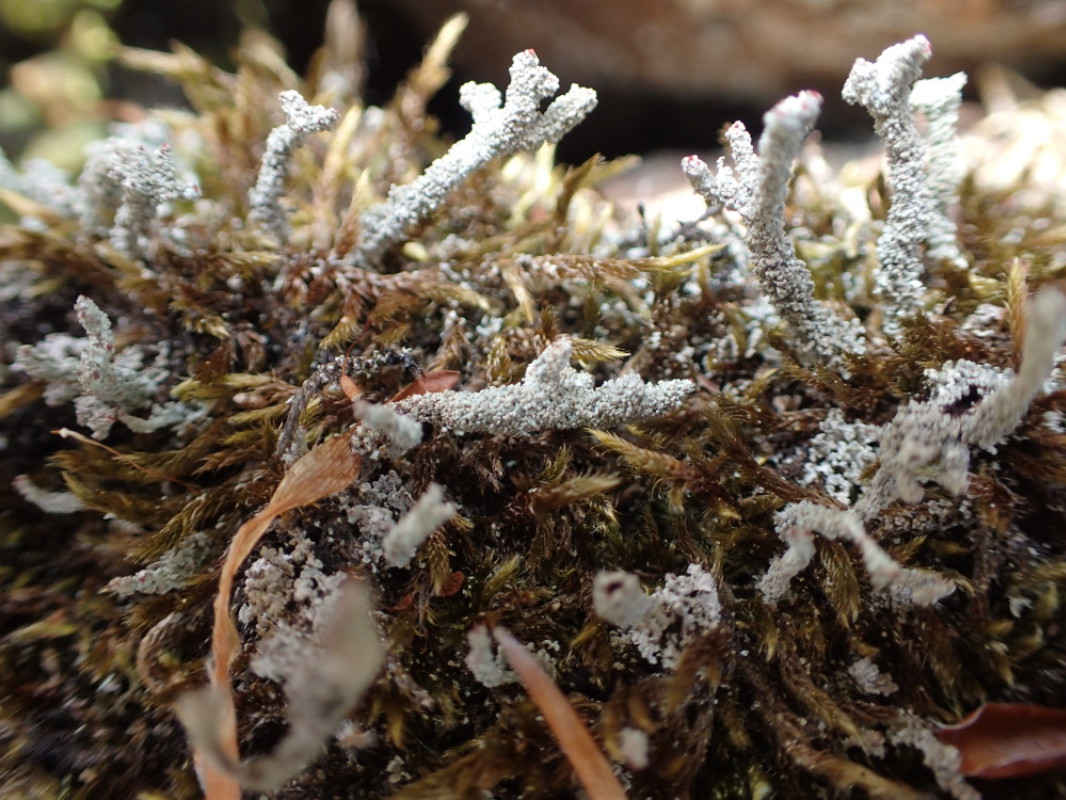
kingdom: Fungi
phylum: Ascomycota
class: Lecanoromycetes
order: Lecanorales
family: Cladoniaceae
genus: Cladonia
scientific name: Cladonia polydactyla
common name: vifte-bægerlav
